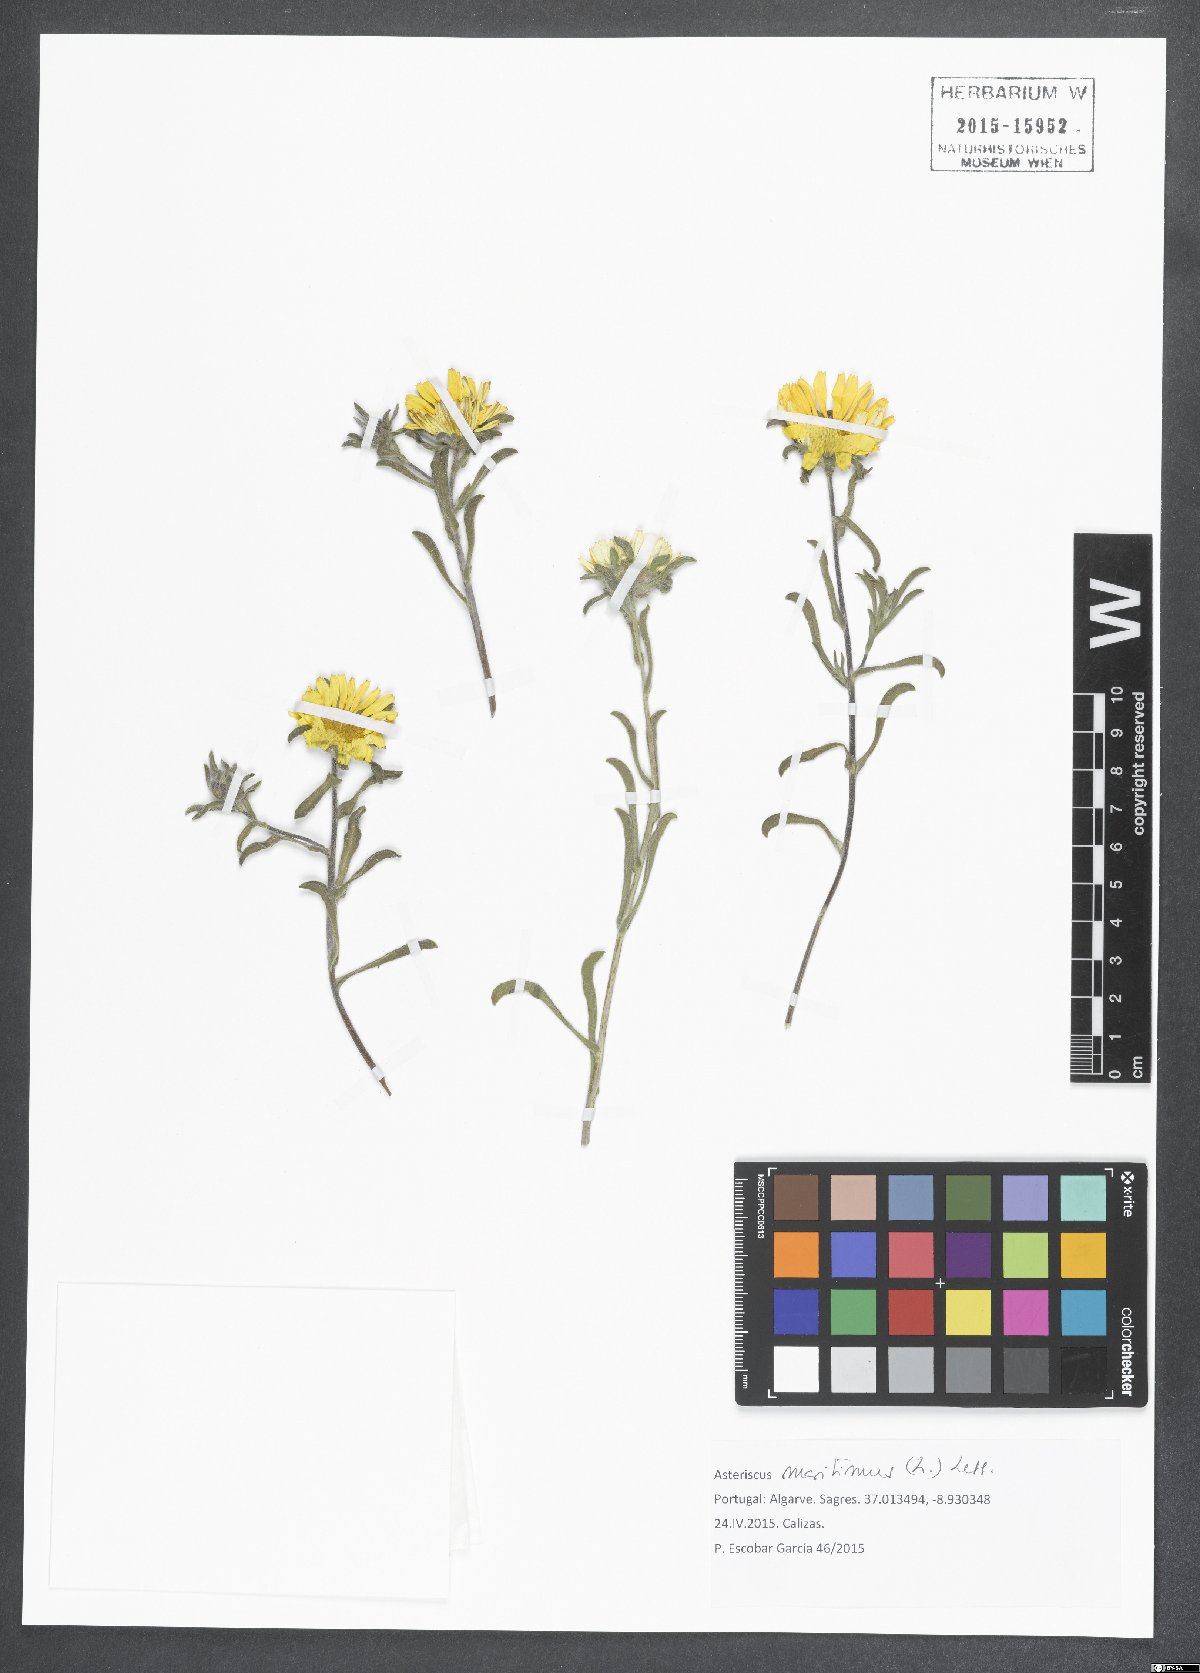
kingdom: Plantae
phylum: Tracheophyta
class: Magnoliopsida
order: Asterales
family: Asteraceae
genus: Pallenis
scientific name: Pallenis maritima
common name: Golden coin daisy
